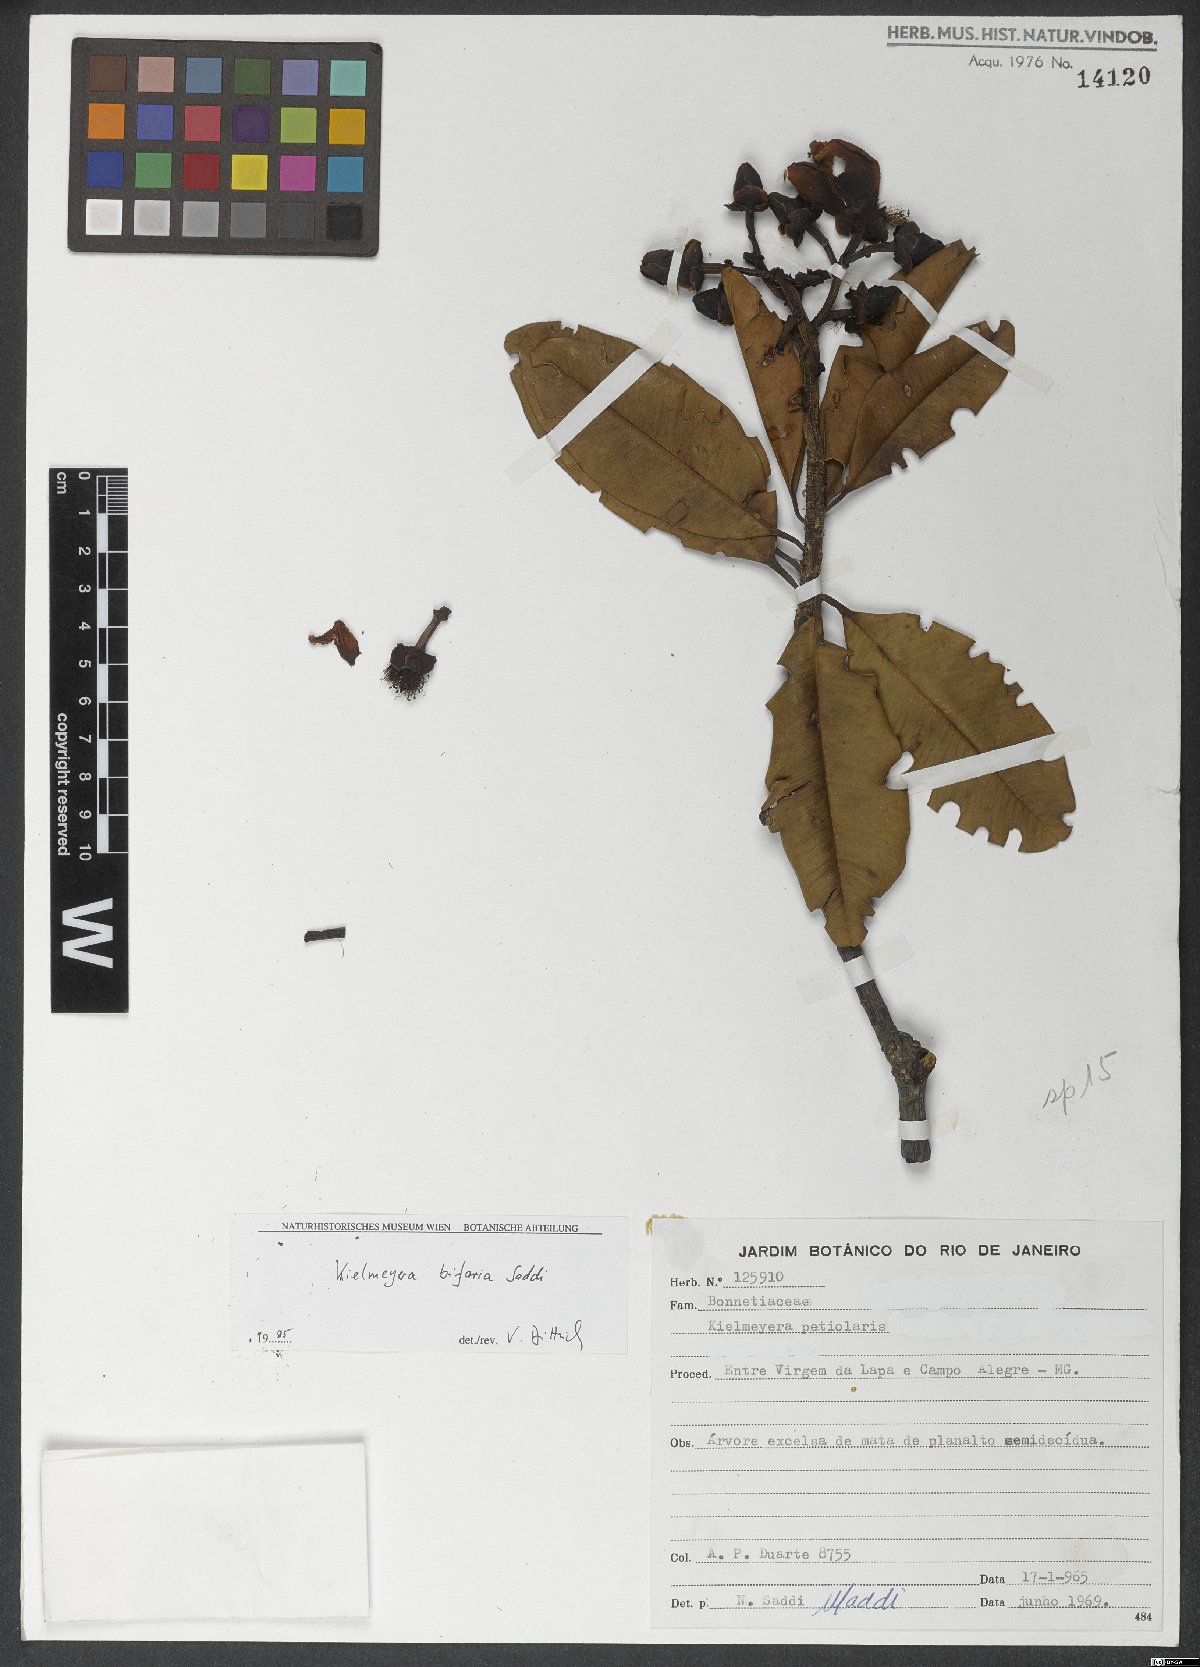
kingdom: Plantae
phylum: Tracheophyta
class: Magnoliopsida
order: Malpighiales
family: Calophyllaceae
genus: Kielmeyera
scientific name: Kielmeyera bifaria
